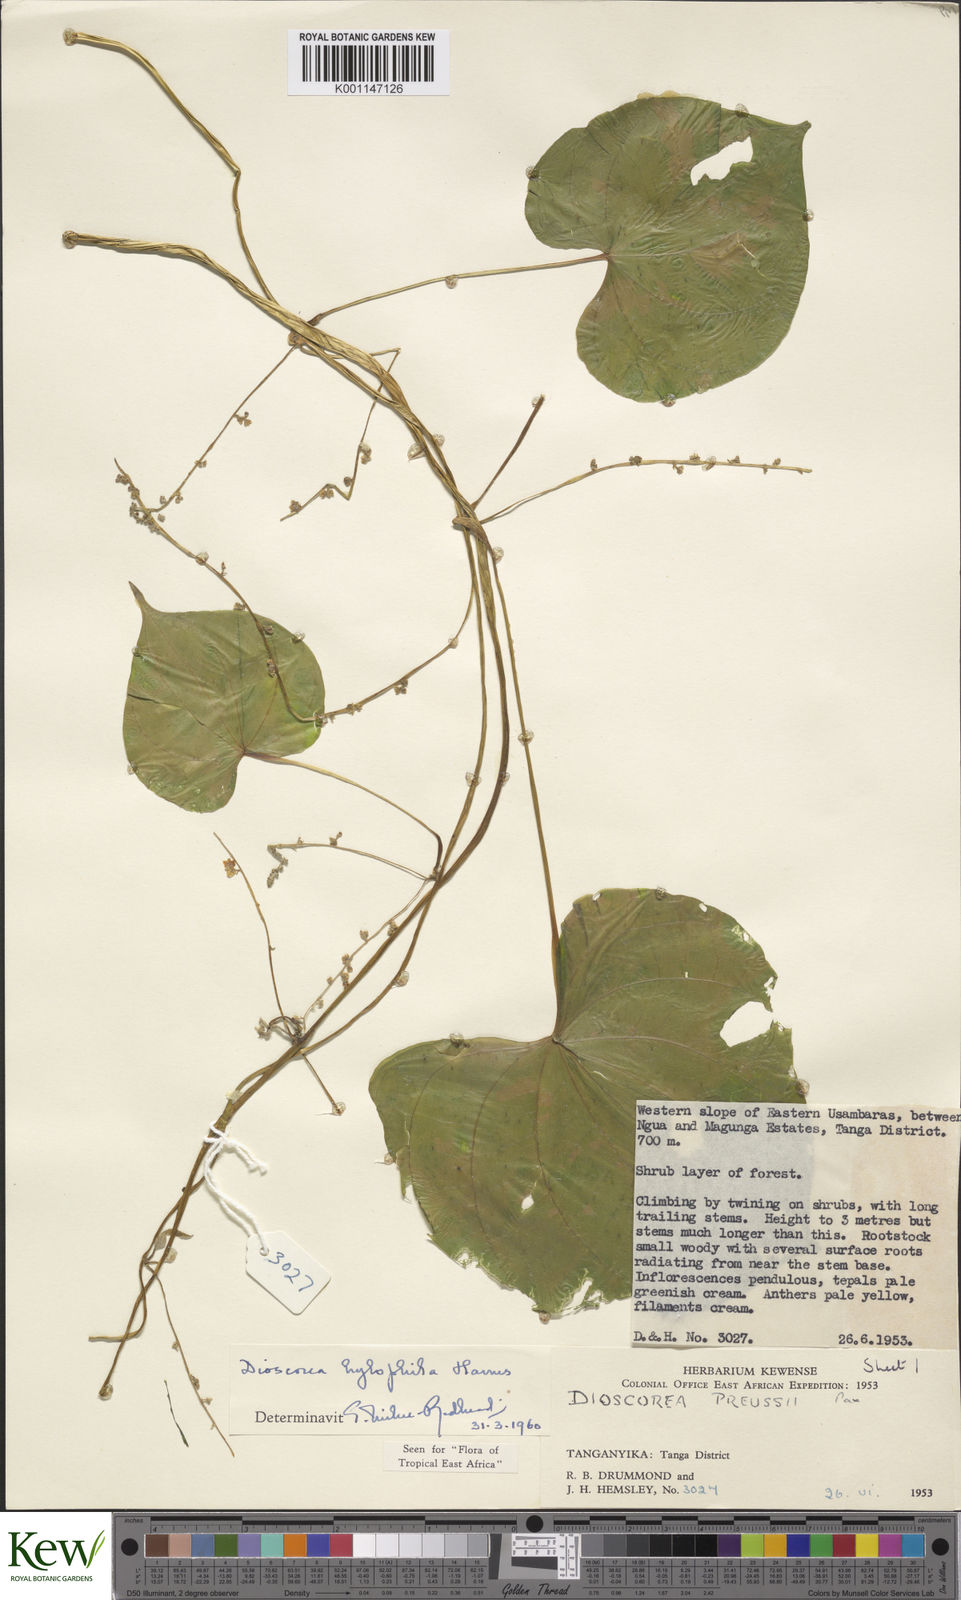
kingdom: Plantae
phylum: Tracheophyta
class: Liliopsida
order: Dioscoreales
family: Dioscoreaceae
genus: Dioscorea
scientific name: Dioscorea
